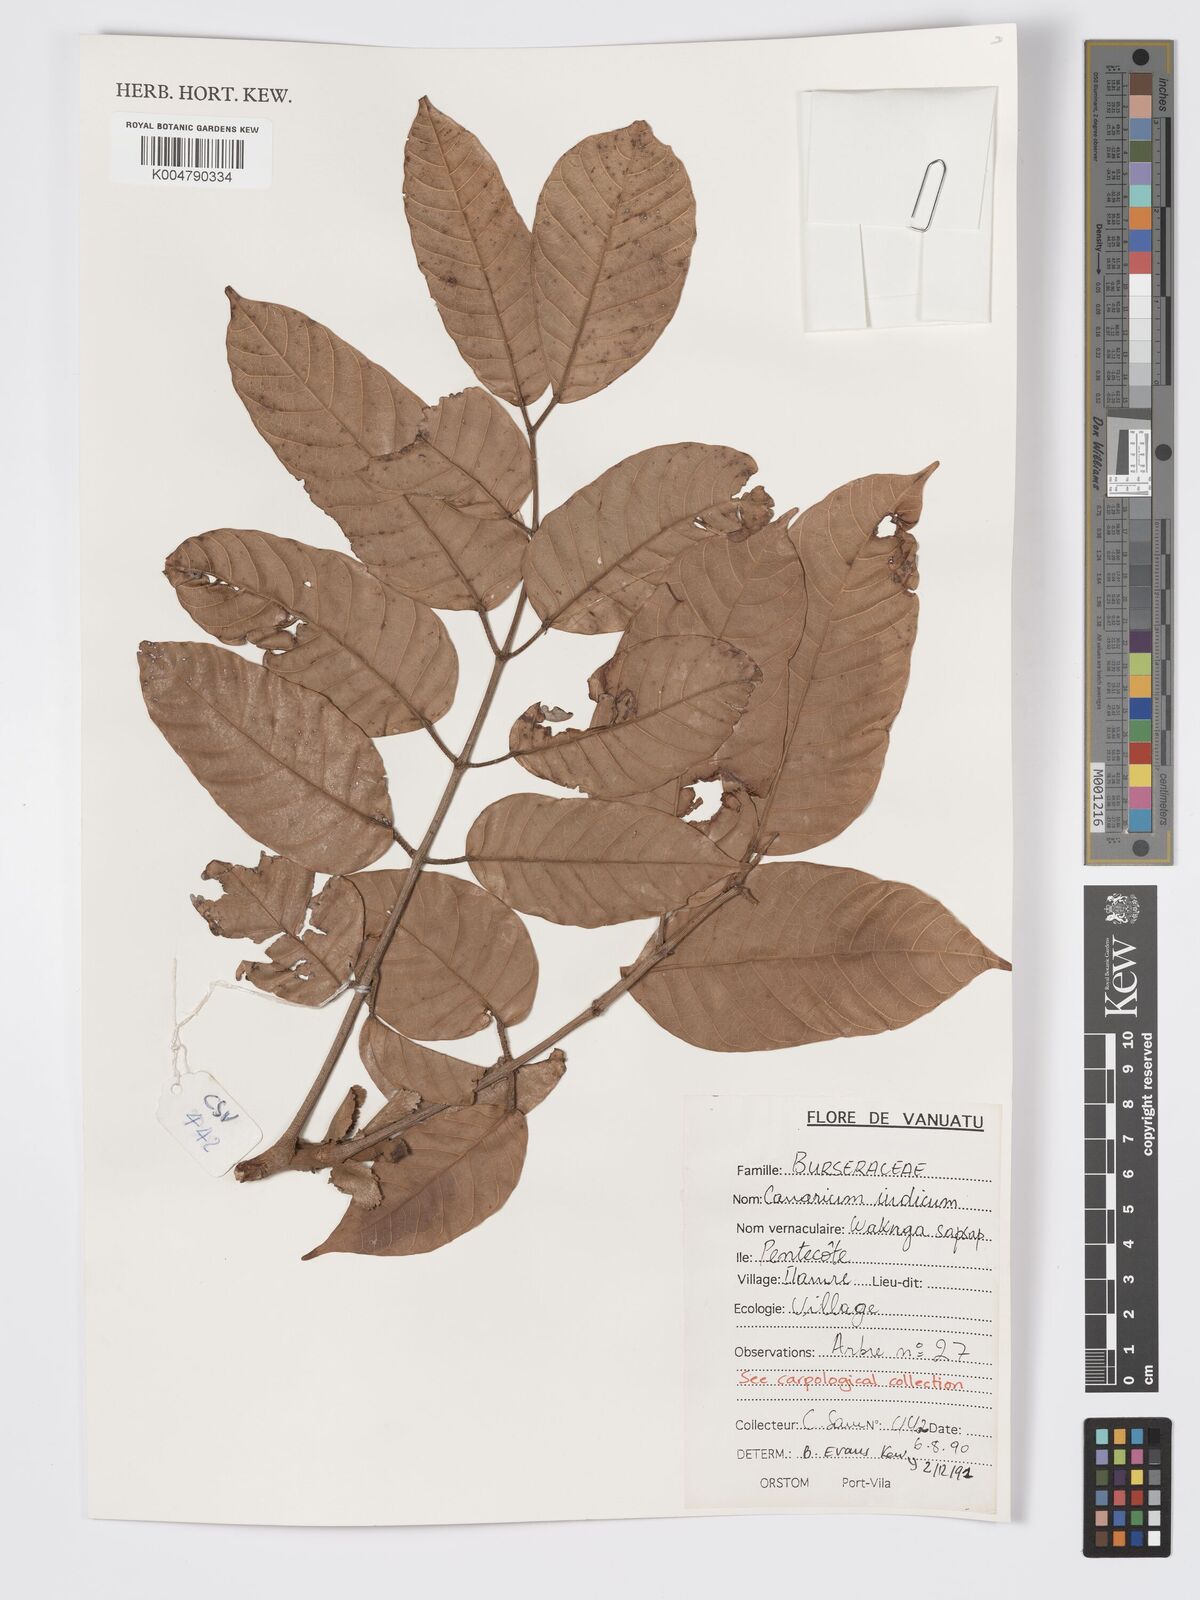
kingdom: Plantae
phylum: Tracheophyta
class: Magnoliopsida
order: Sapindales
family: Burseraceae
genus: Canarium
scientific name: Canarium indicum
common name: Canarium-nut
